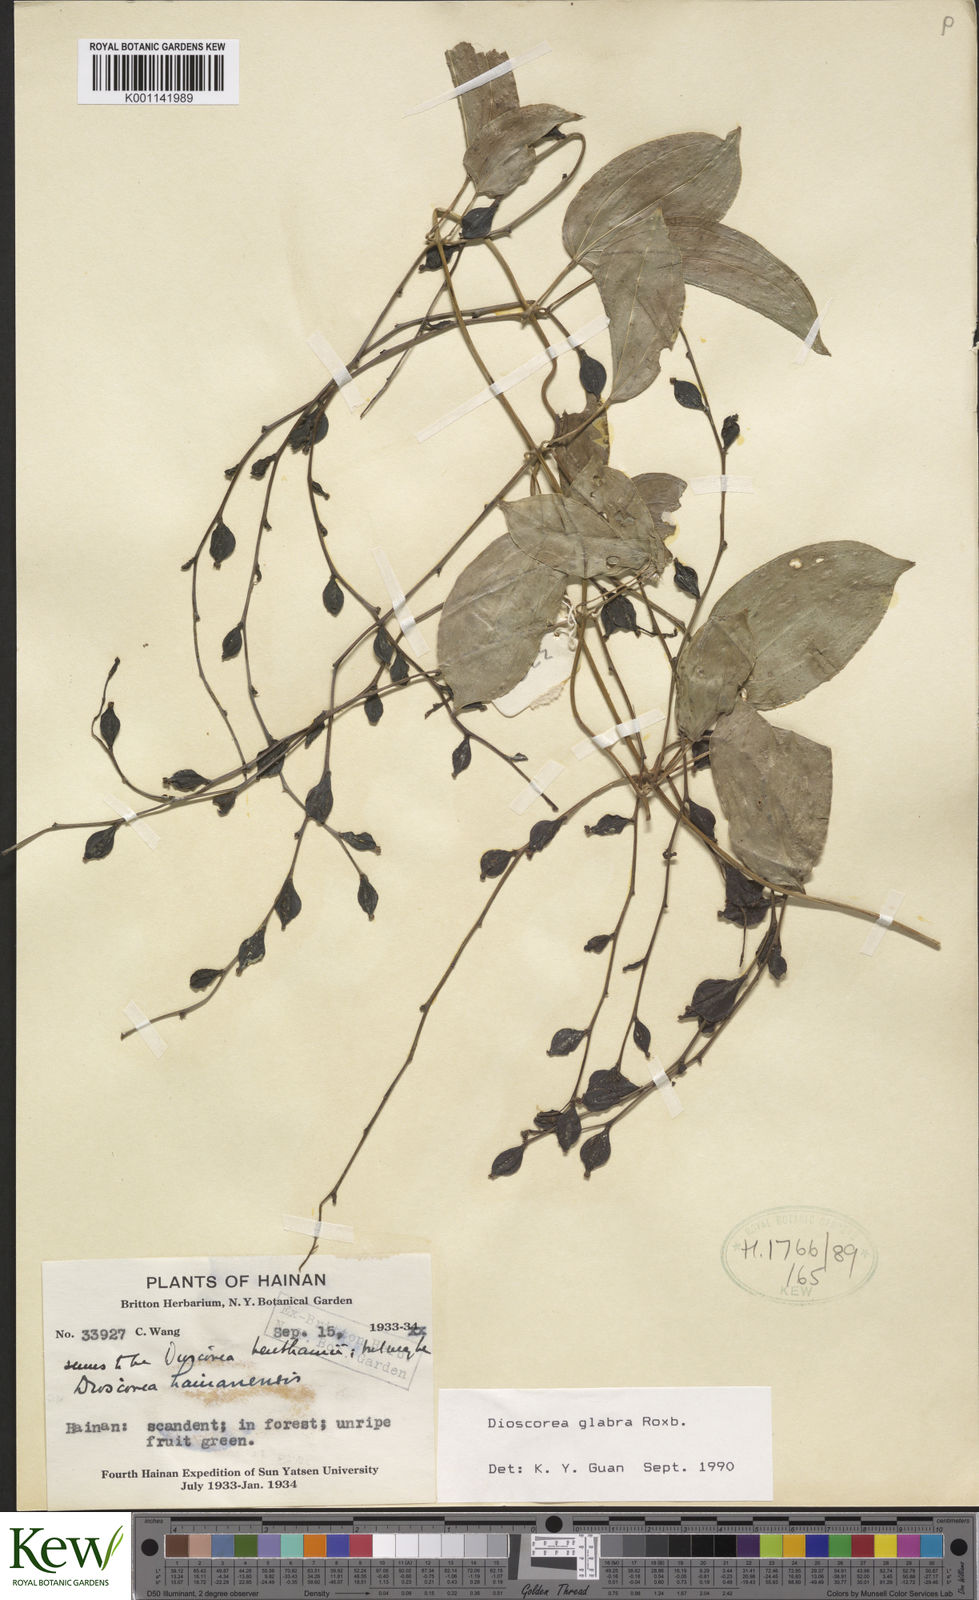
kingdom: Plantae
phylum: Tracheophyta
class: Liliopsida
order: Dioscoreales
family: Dioscoreaceae
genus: Dioscorea
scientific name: Dioscorea glabra
